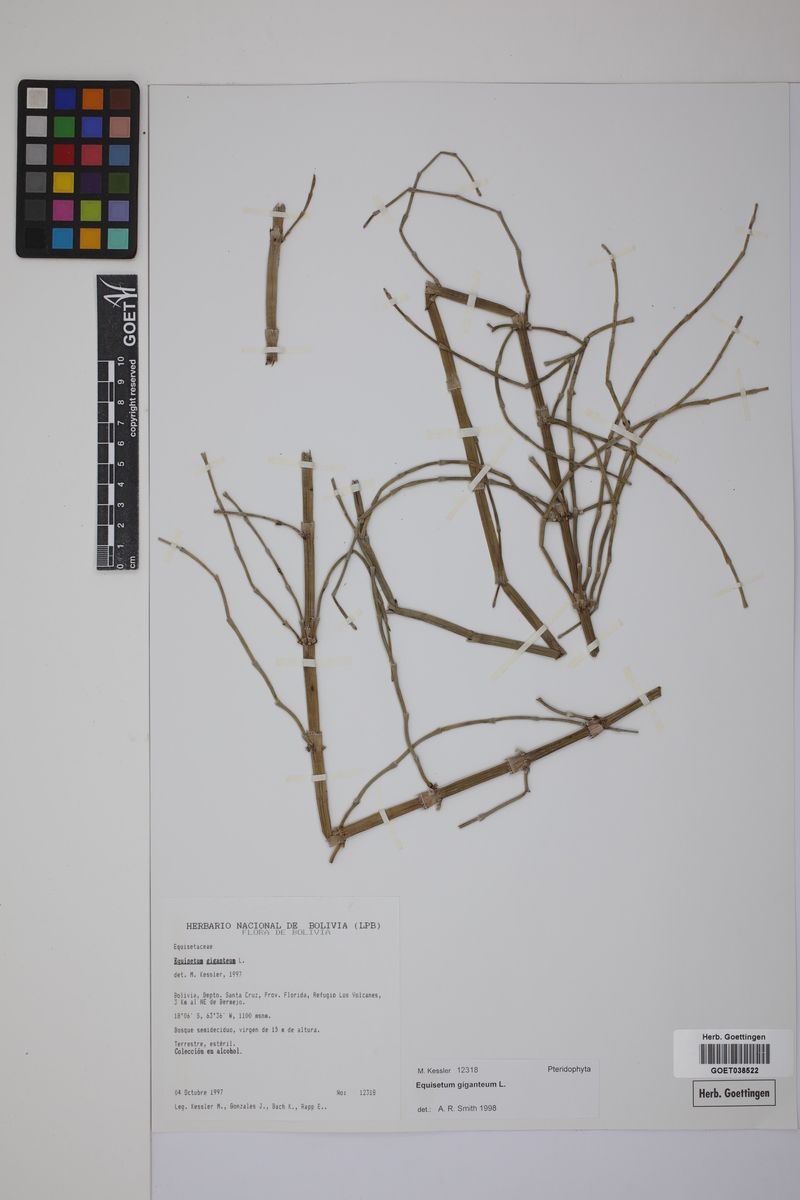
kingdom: Plantae
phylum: Tracheophyta
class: Polypodiopsida
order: Equisetales
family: Equisetaceae
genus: Equisetum
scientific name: Equisetum giganteum
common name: Giant horsetail
